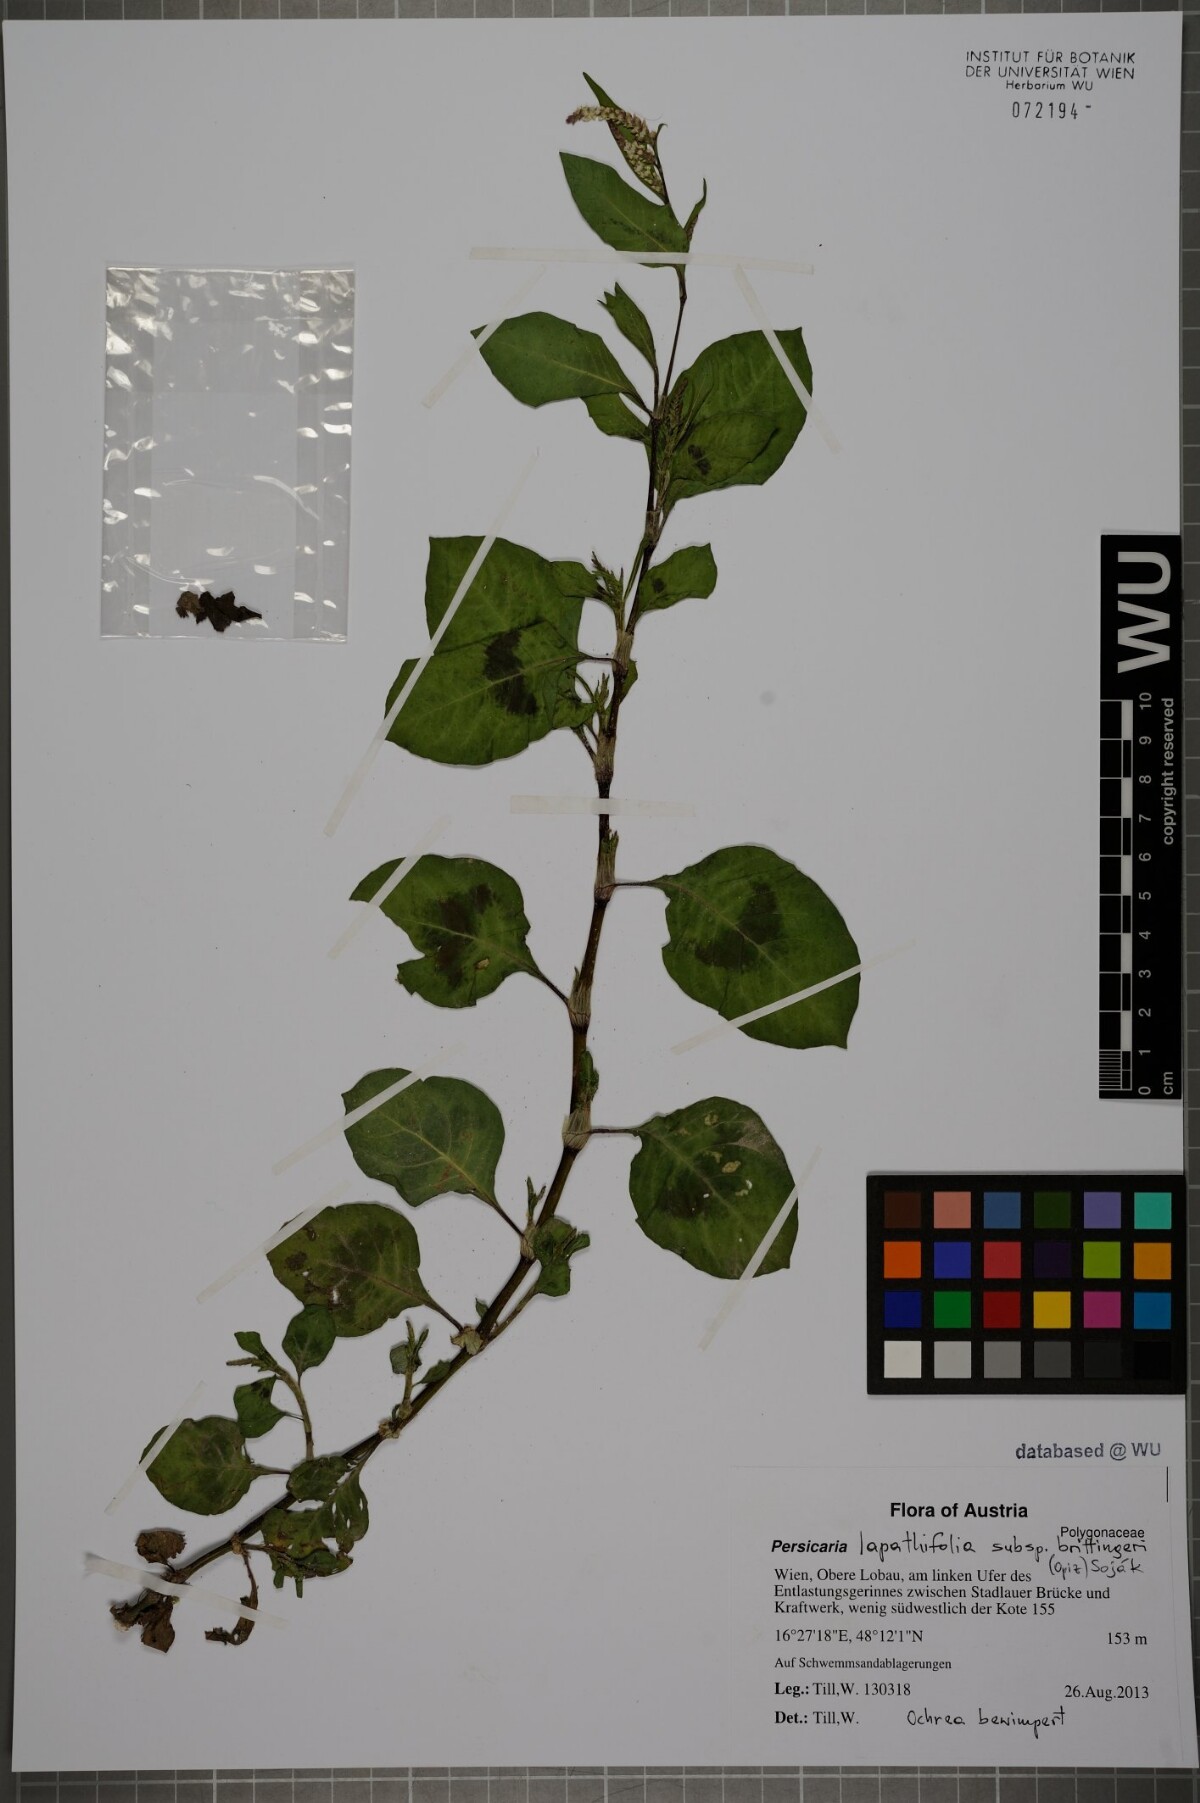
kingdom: Plantae
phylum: Tracheophyta
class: Magnoliopsida
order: Caryophyllales
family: Polygonaceae
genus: Persicaria
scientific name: Persicaria lapathifolia
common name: Curlytop knotweed
